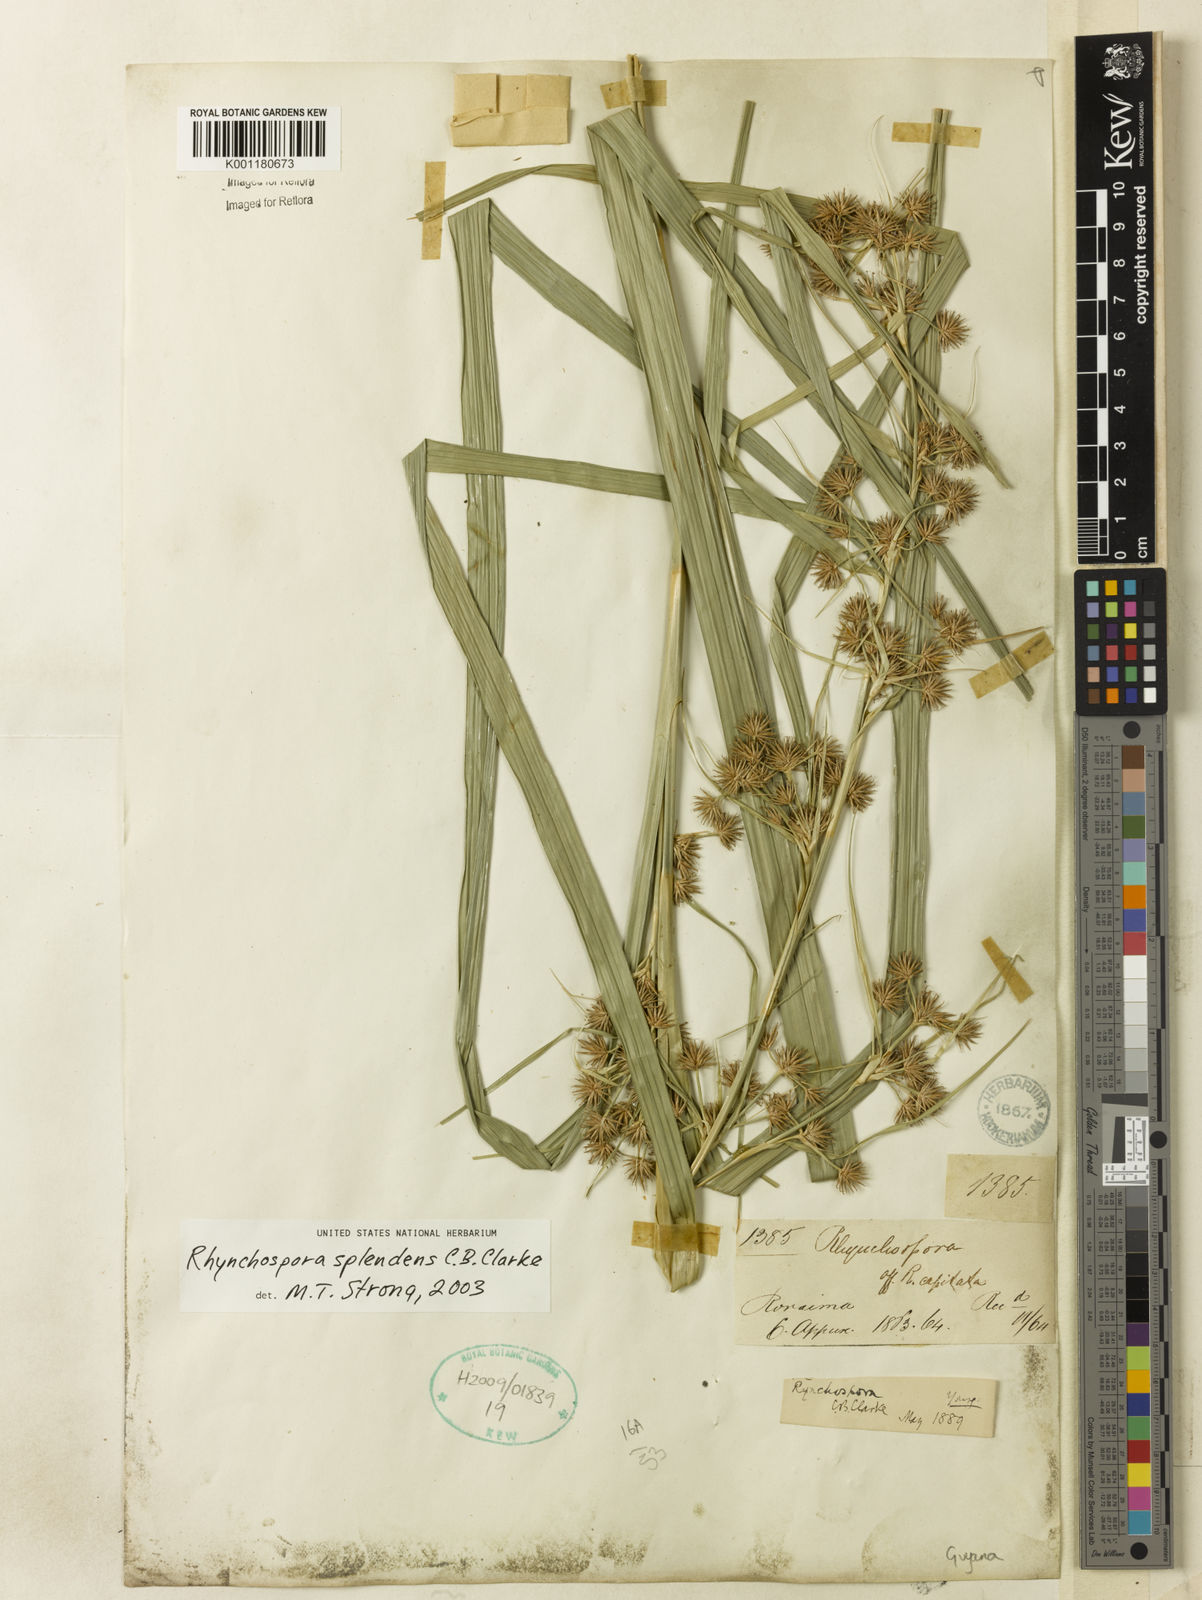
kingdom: Plantae
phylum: Tracheophyta
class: Liliopsida
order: Poales
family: Cyperaceae
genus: Rhynchospora
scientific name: Rhynchospora splendens
